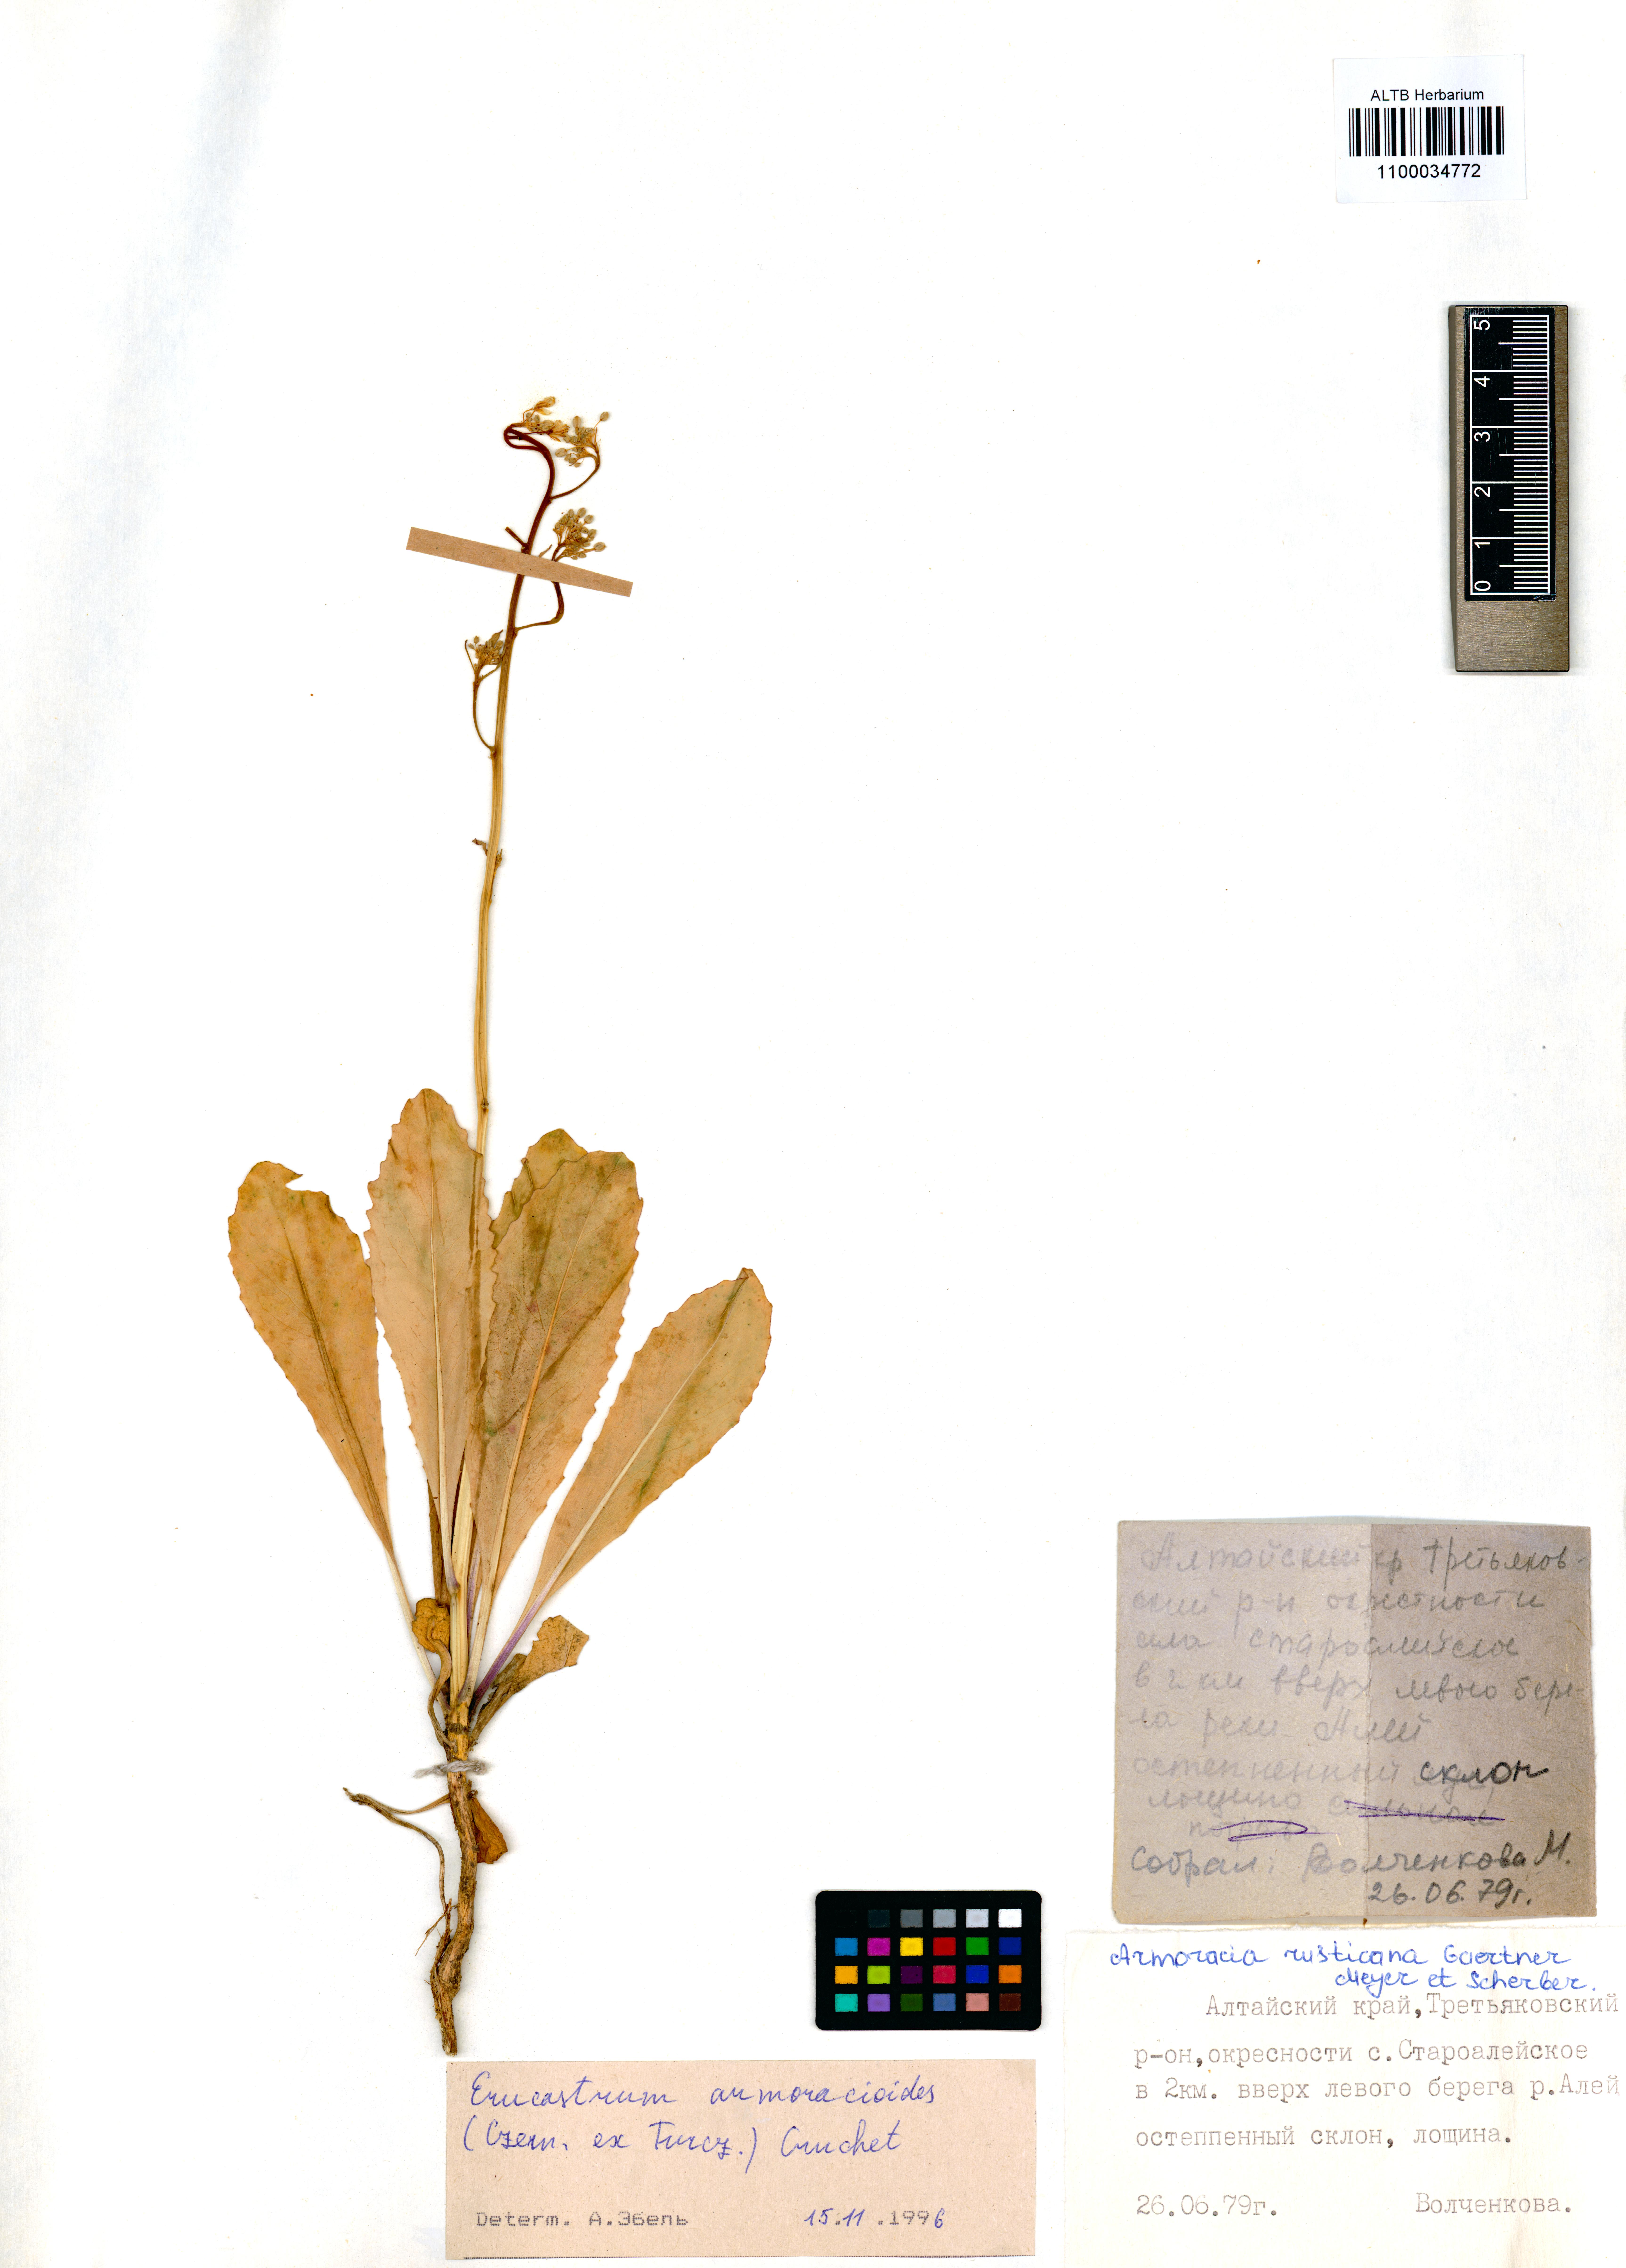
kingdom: Plantae
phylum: Tracheophyta
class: Magnoliopsida
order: Brassicales
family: Brassicaceae
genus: Brassica
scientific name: Brassica elongata
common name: Long-stalked rape
